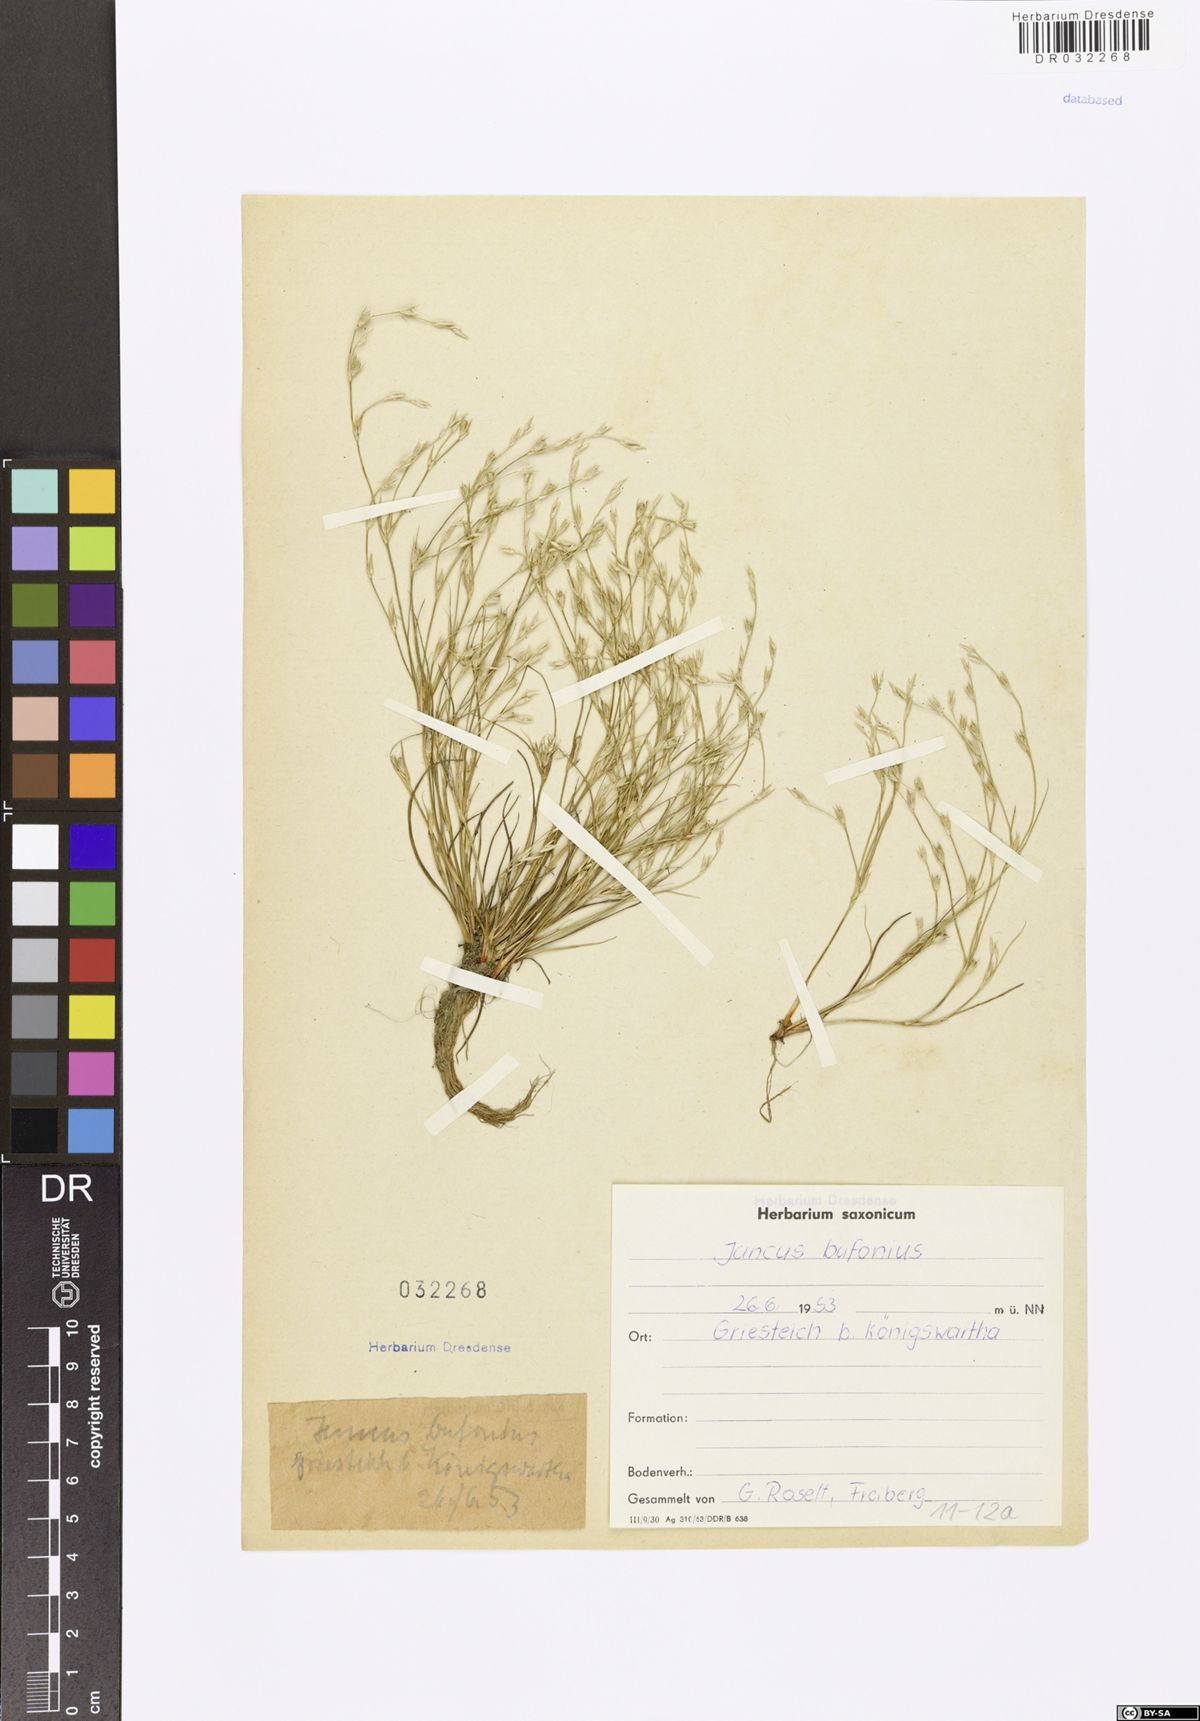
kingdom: Plantae
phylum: Tracheophyta
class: Liliopsida
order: Poales
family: Juncaceae
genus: Juncus
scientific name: Juncus bufonius
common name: Toad rush
